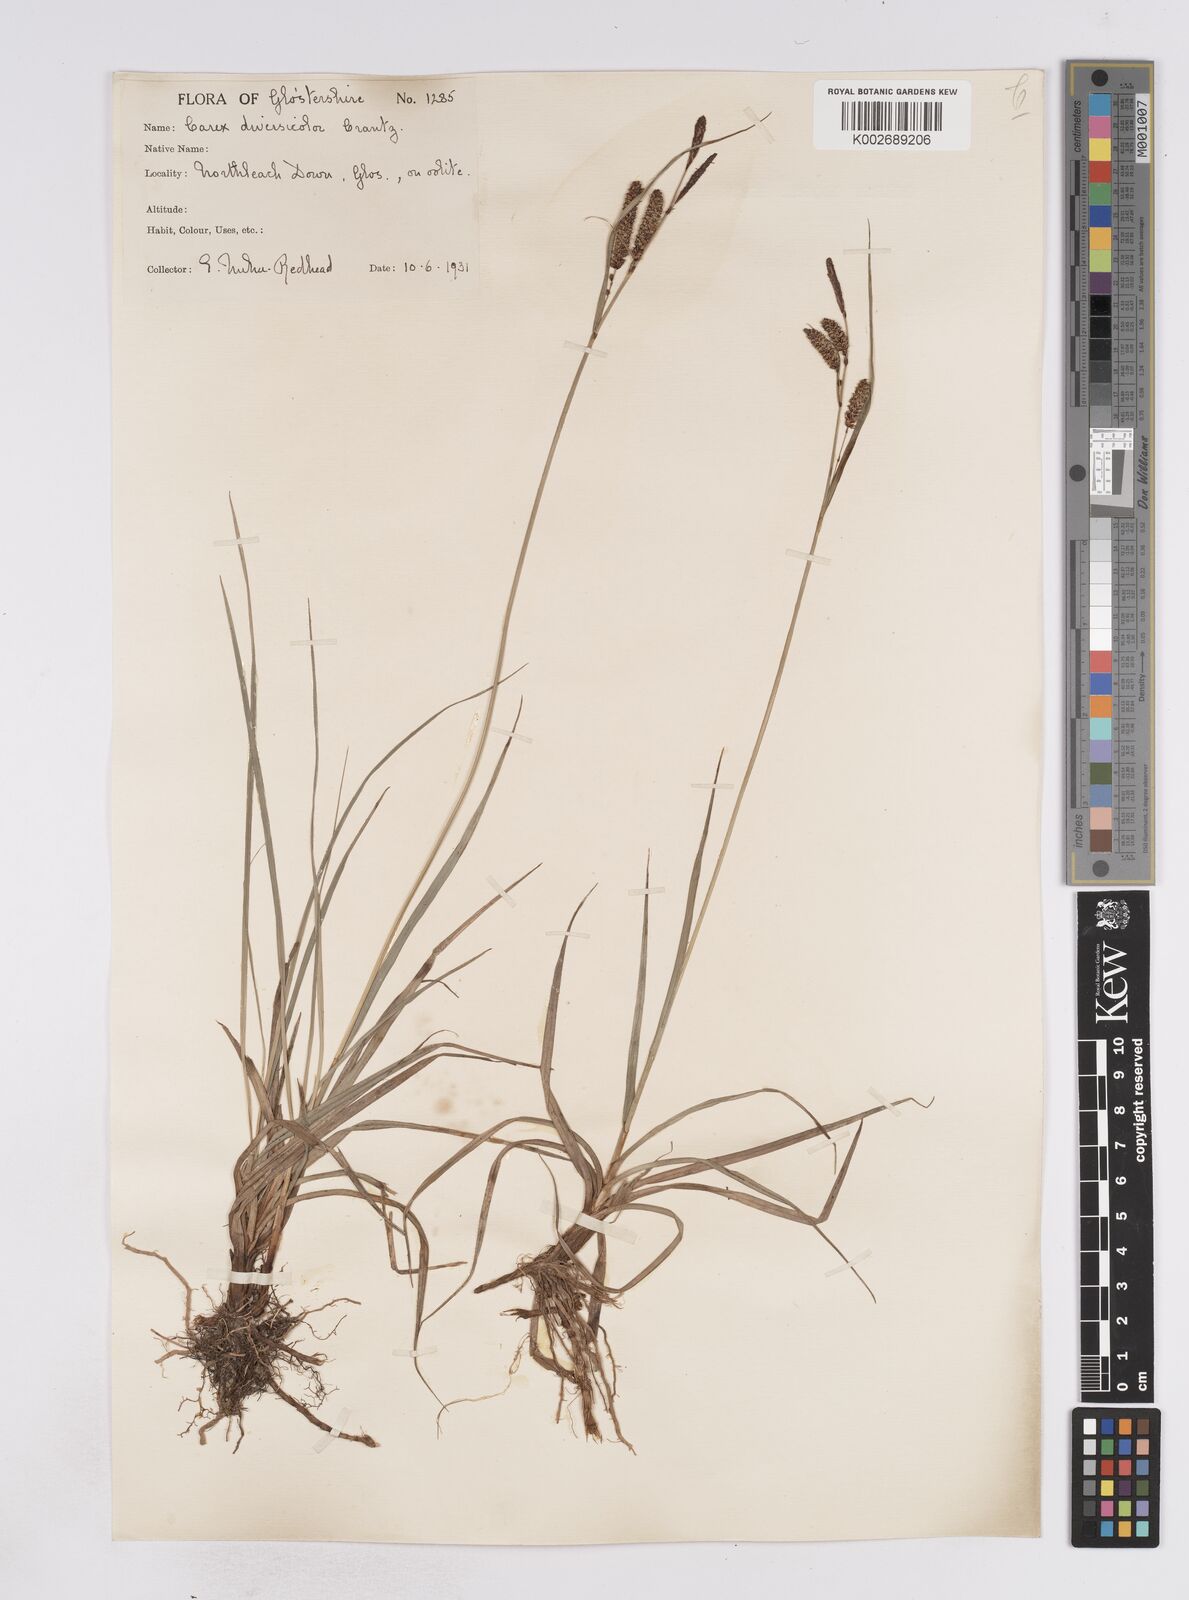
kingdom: Plantae
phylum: Tracheophyta
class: Liliopsida
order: Poales
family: Cyperaceae
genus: Carex
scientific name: Carex flacca
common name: Glaucous sedge
